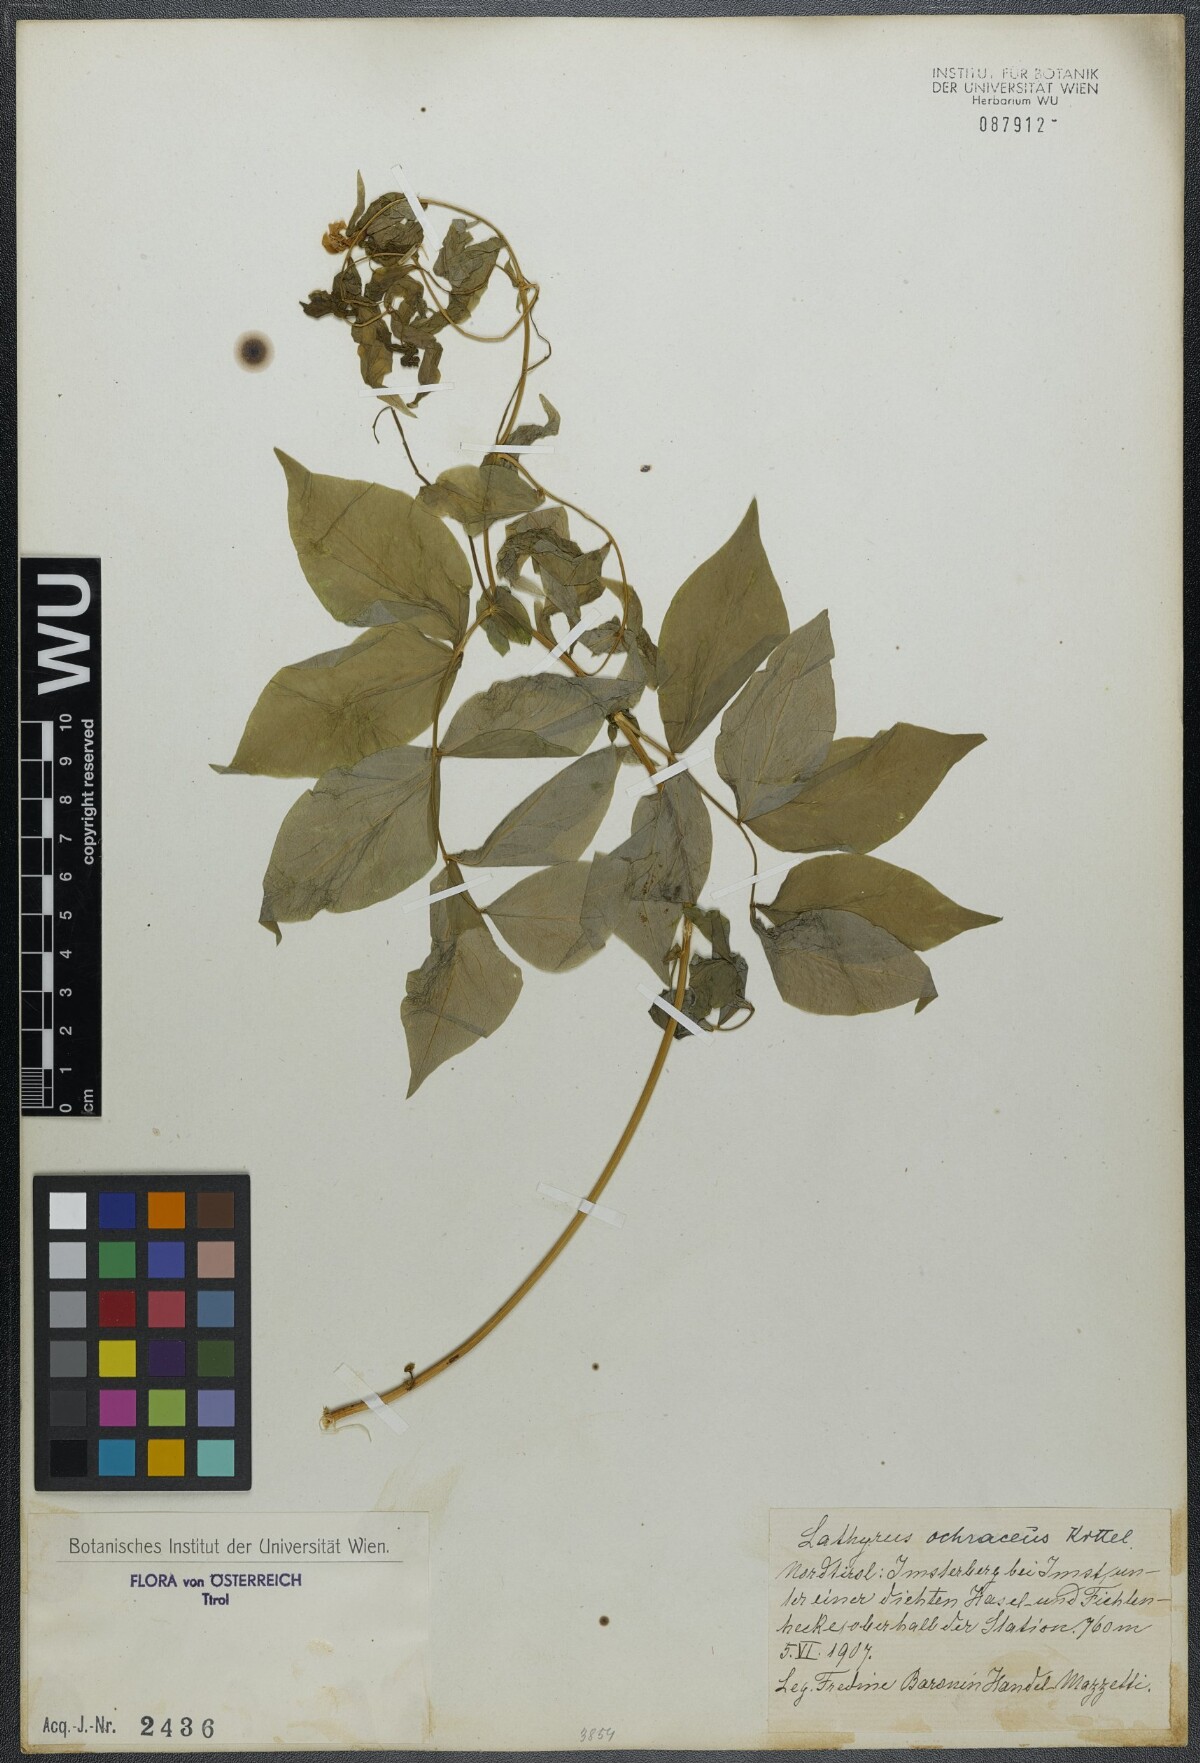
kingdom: Plantae
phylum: Tracheophyta
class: Magnoliopsida
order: Fabales
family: Fabaceae
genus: Lathyrus
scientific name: Lathyrus laevigatus
